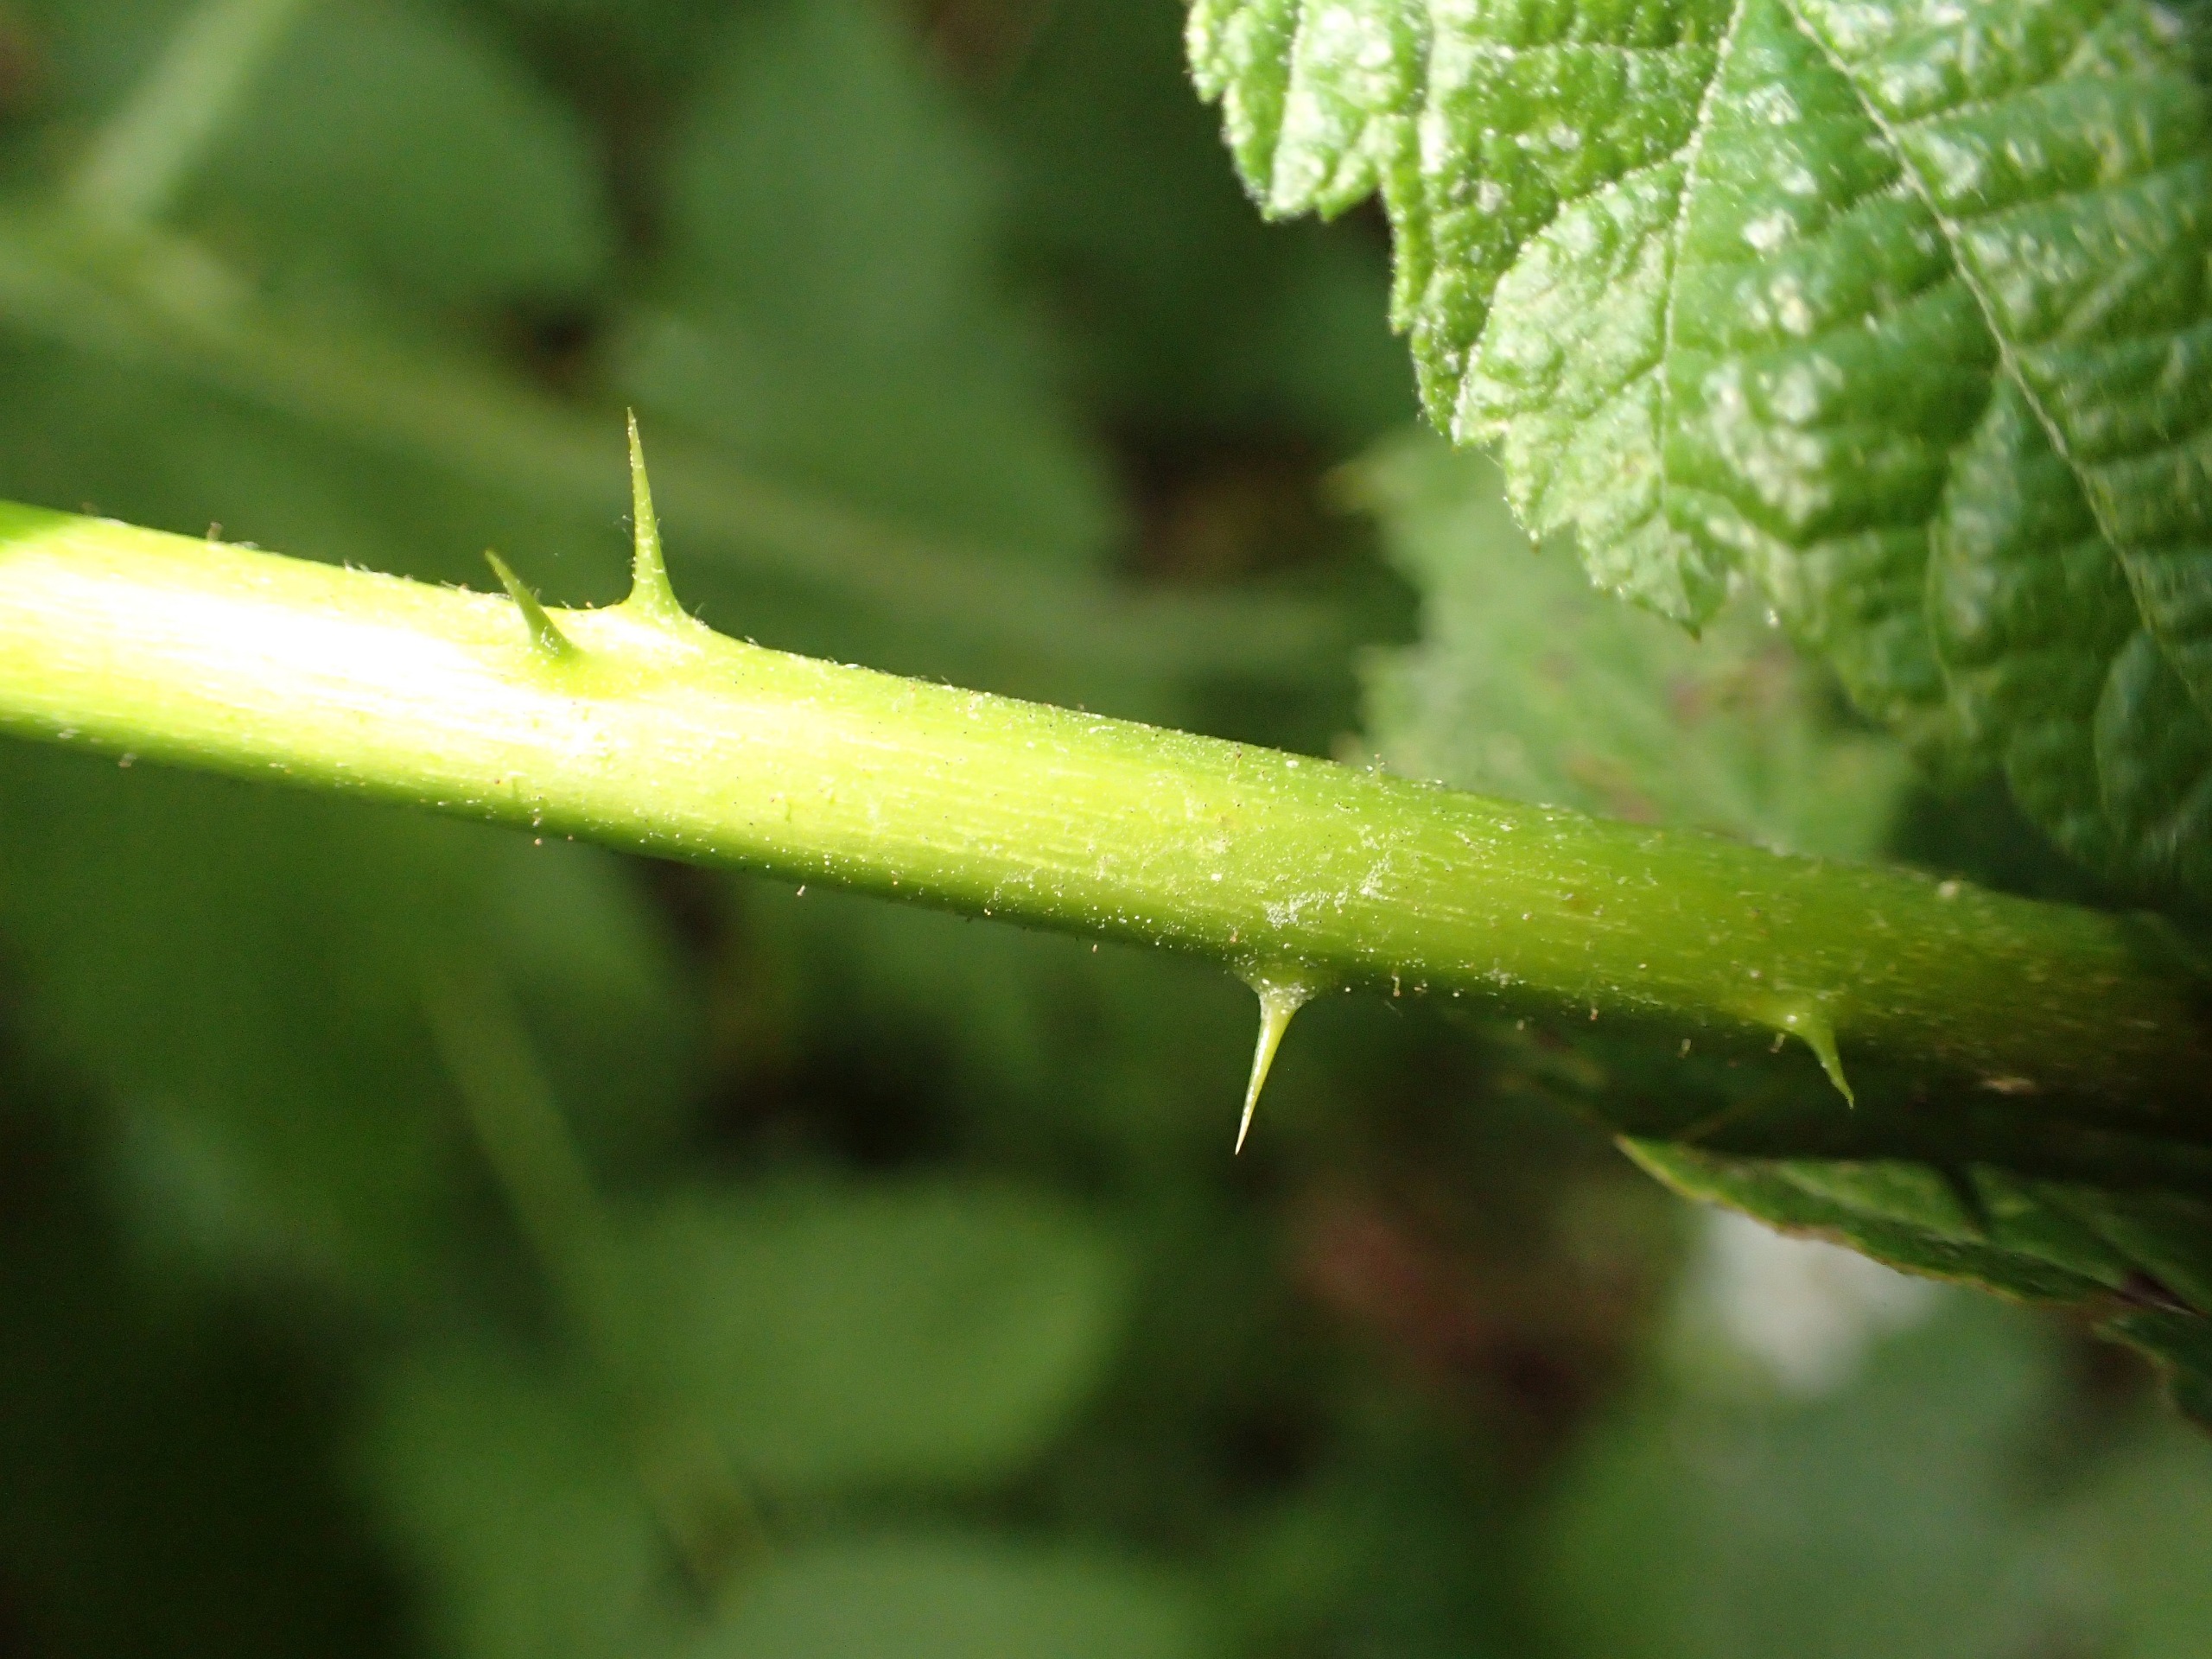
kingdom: Plantae
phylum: Tracheophyta
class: Magnoliopsida
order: Rosales
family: Rosaceae
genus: Rubus
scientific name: Rubus camptostachys
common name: Håret hasselbrombær
